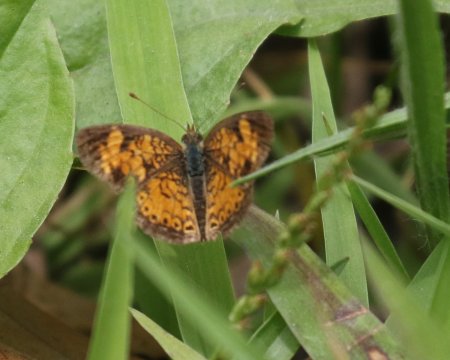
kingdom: Animalia
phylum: Arthropoda
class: Insecta
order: Lepidoptera
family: Nymphalidae
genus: Phyciodes
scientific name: Phyciodes tharos
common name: Pearl Crescent
